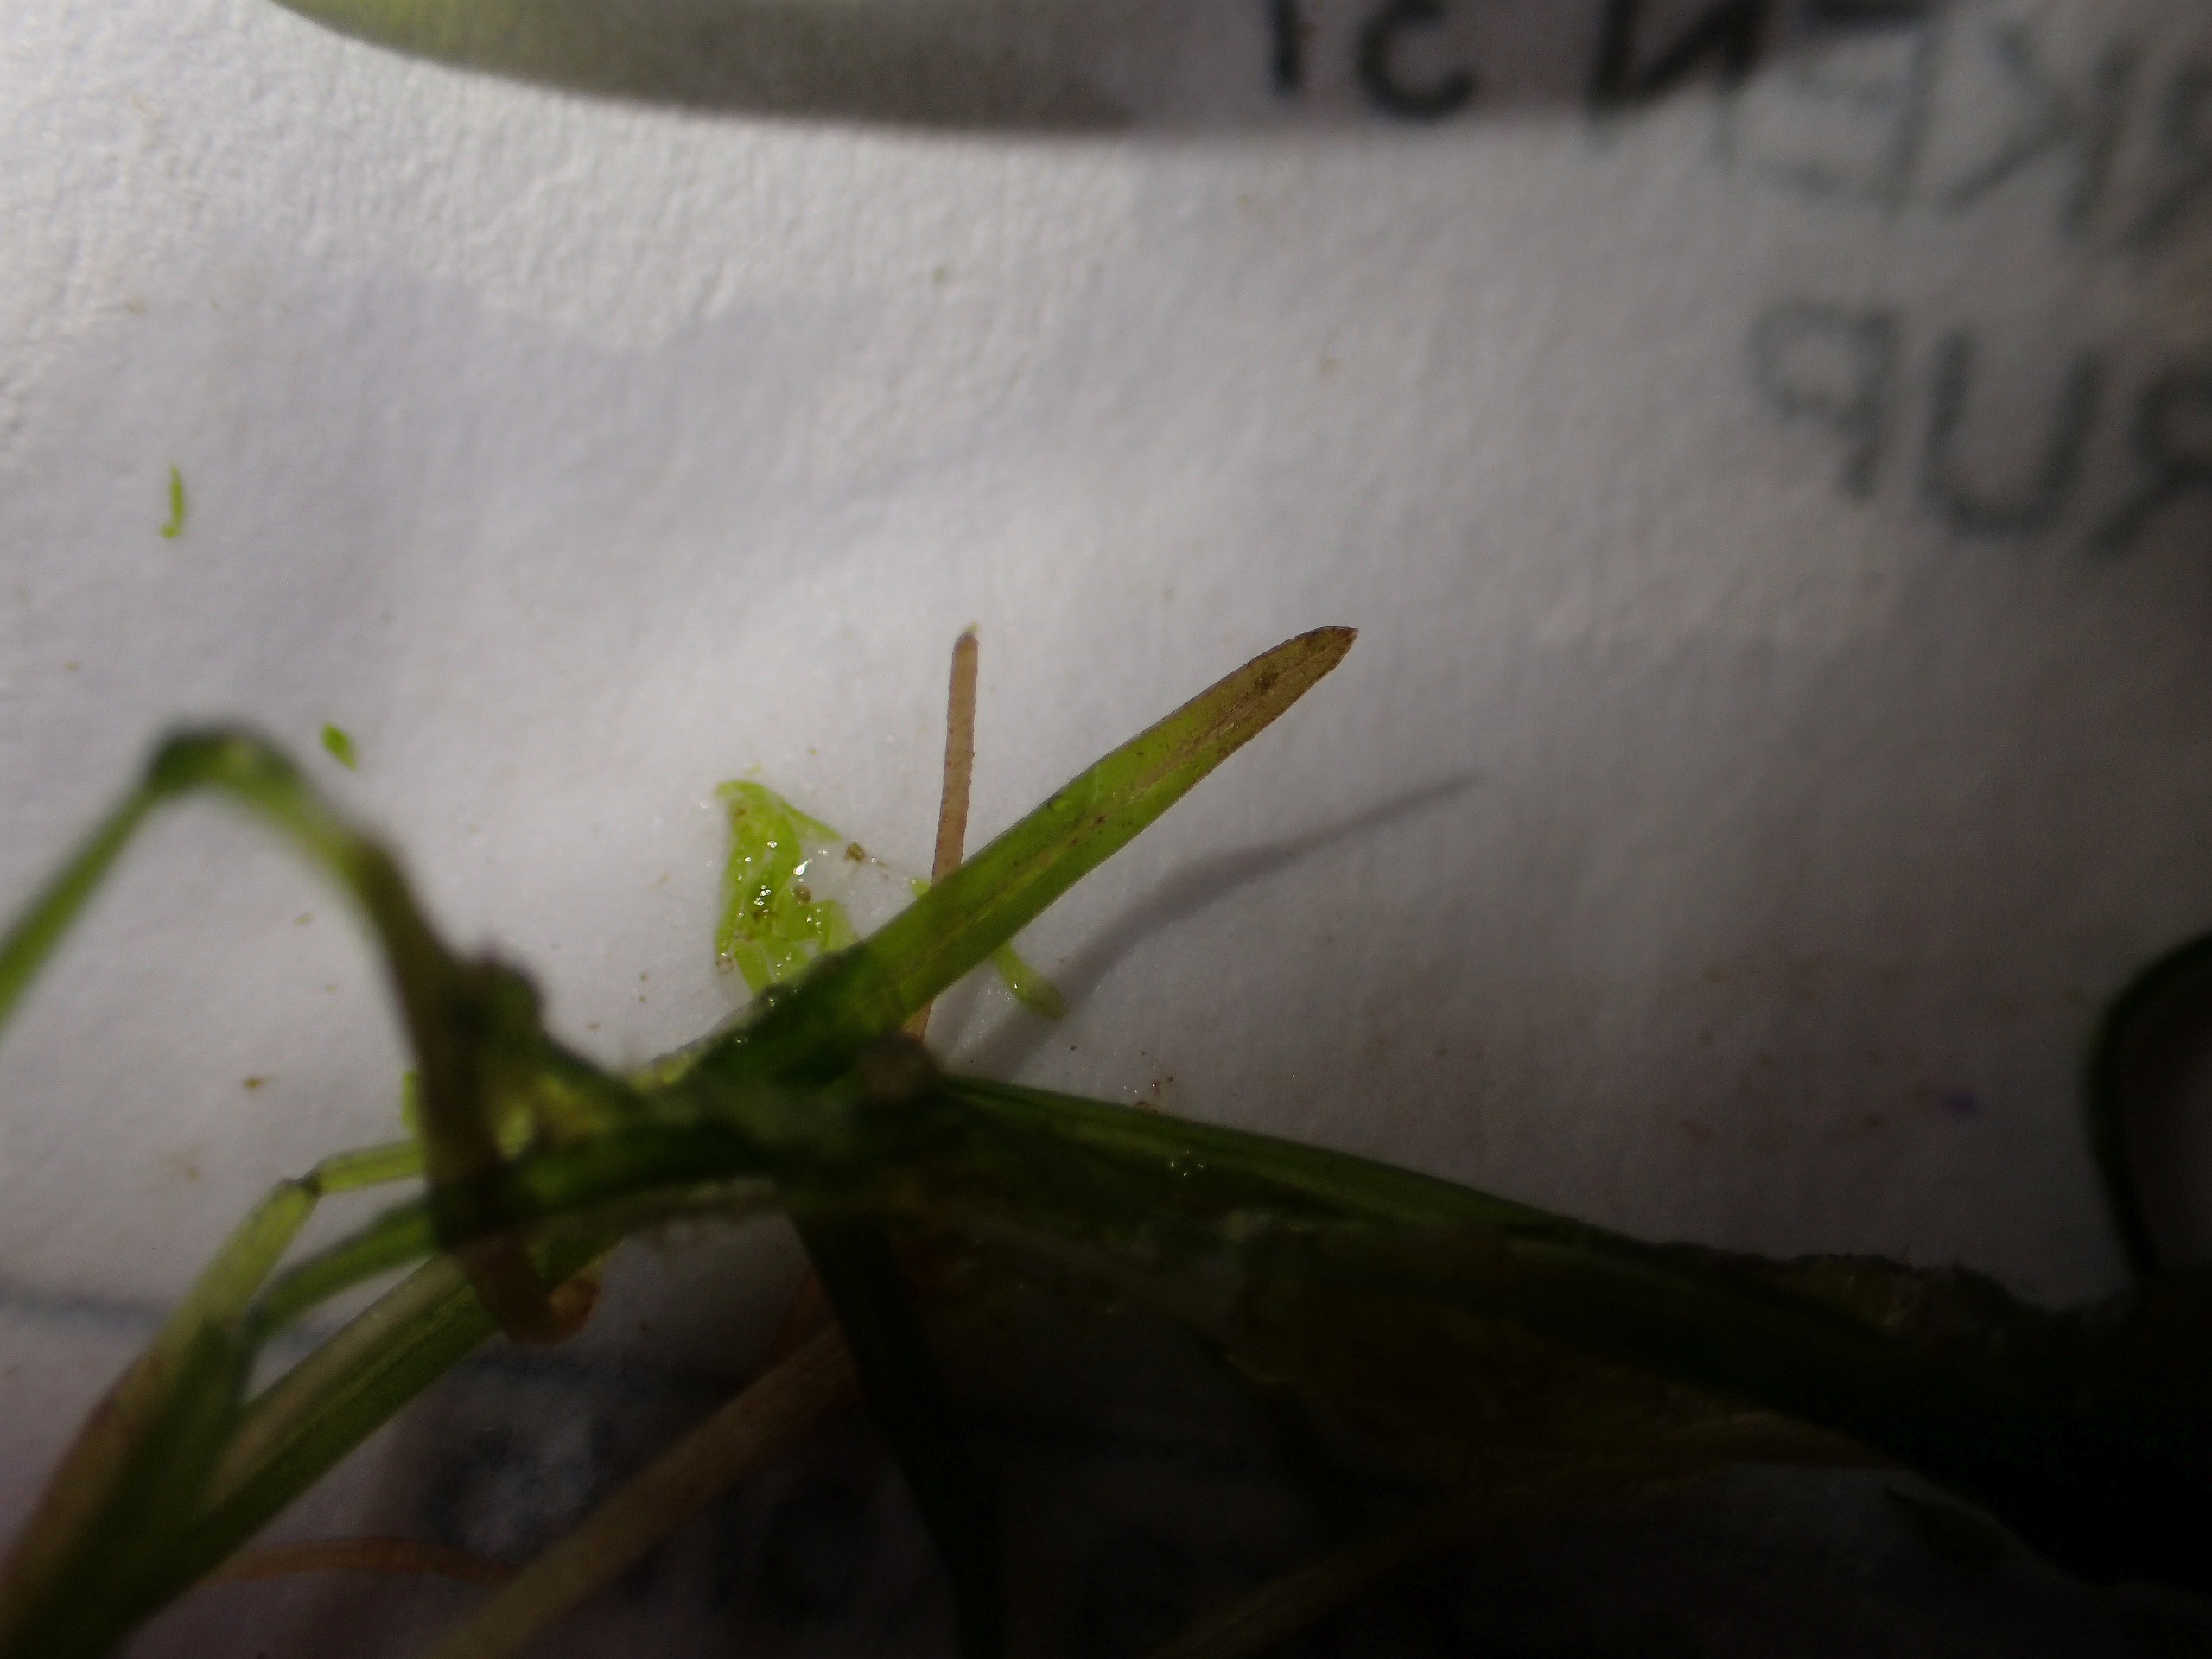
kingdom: Plantae
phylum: Tracheophyta
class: Liliopsida
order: Alismatales
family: Potamogetonaceae
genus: Potamogeton
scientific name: Potamogeton pusillus
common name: Spinkel vandaks
